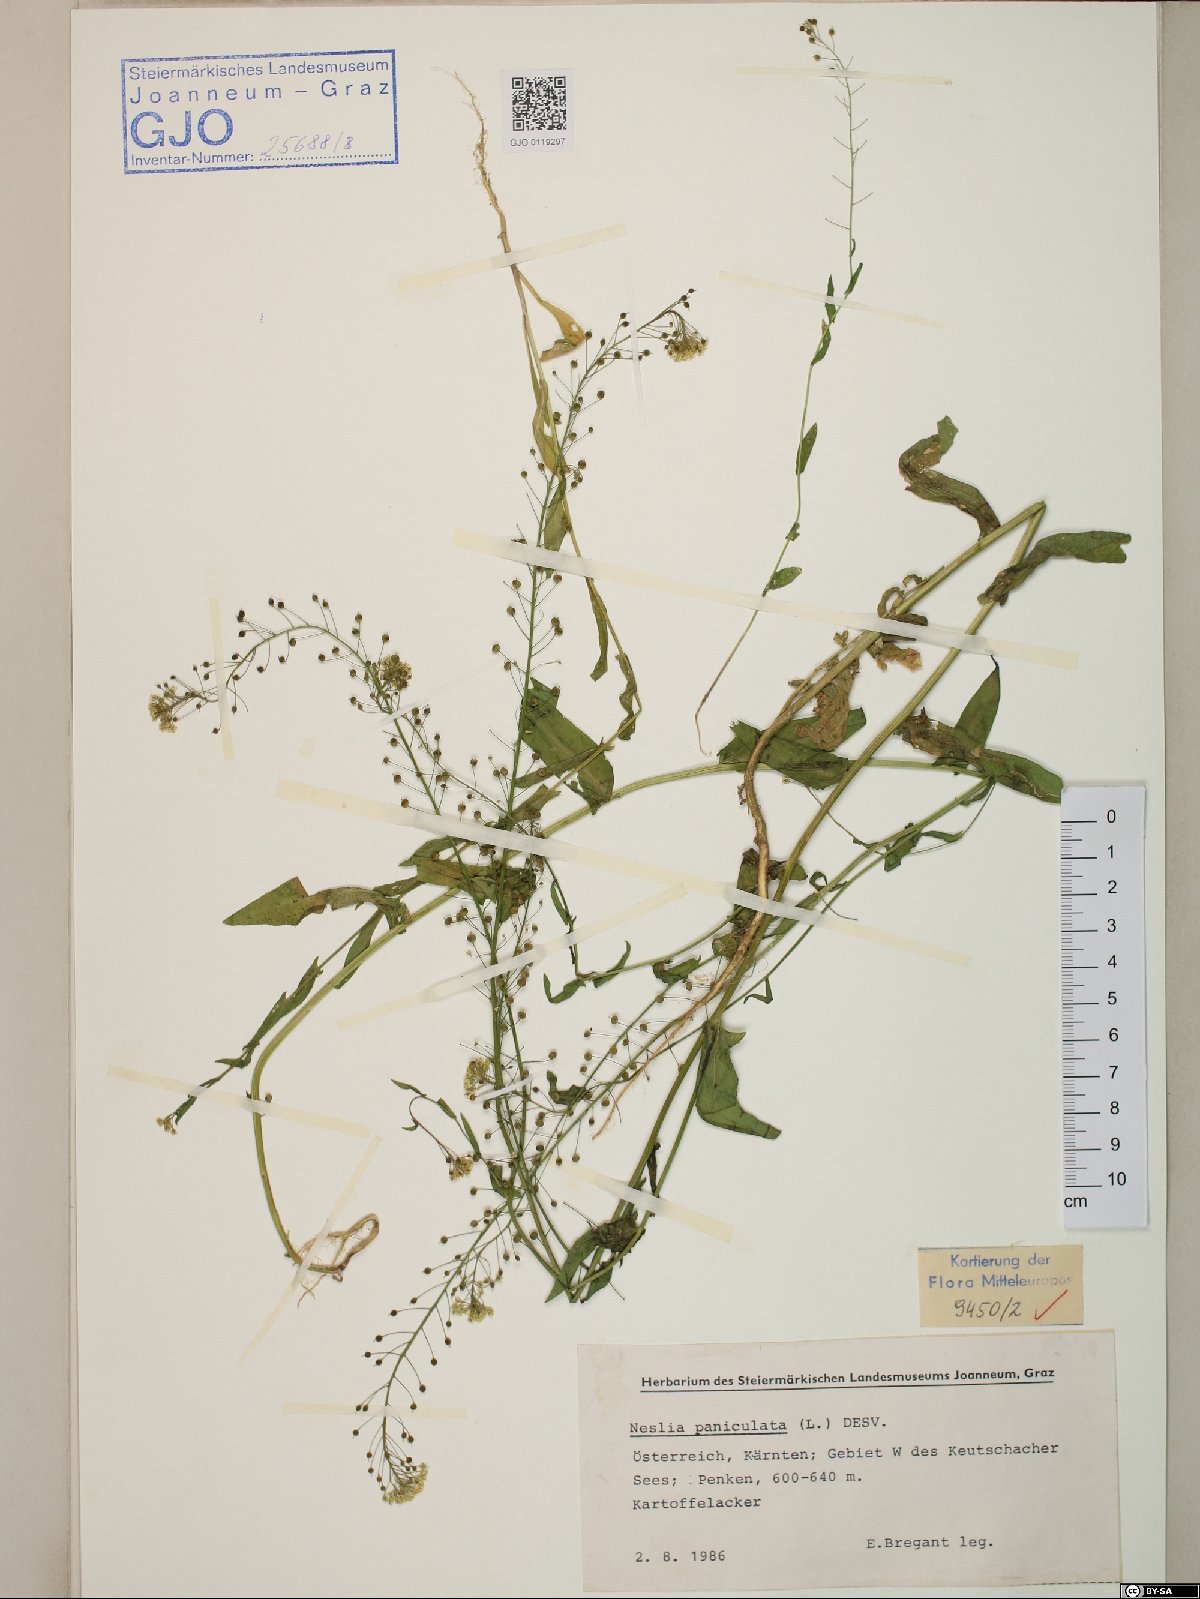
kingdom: Plantae
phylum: Tracheophyta
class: Magnoliopsida
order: Brassicales
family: Brassicaceae
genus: Neslia
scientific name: Neslia paniculata
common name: Ball mustard
